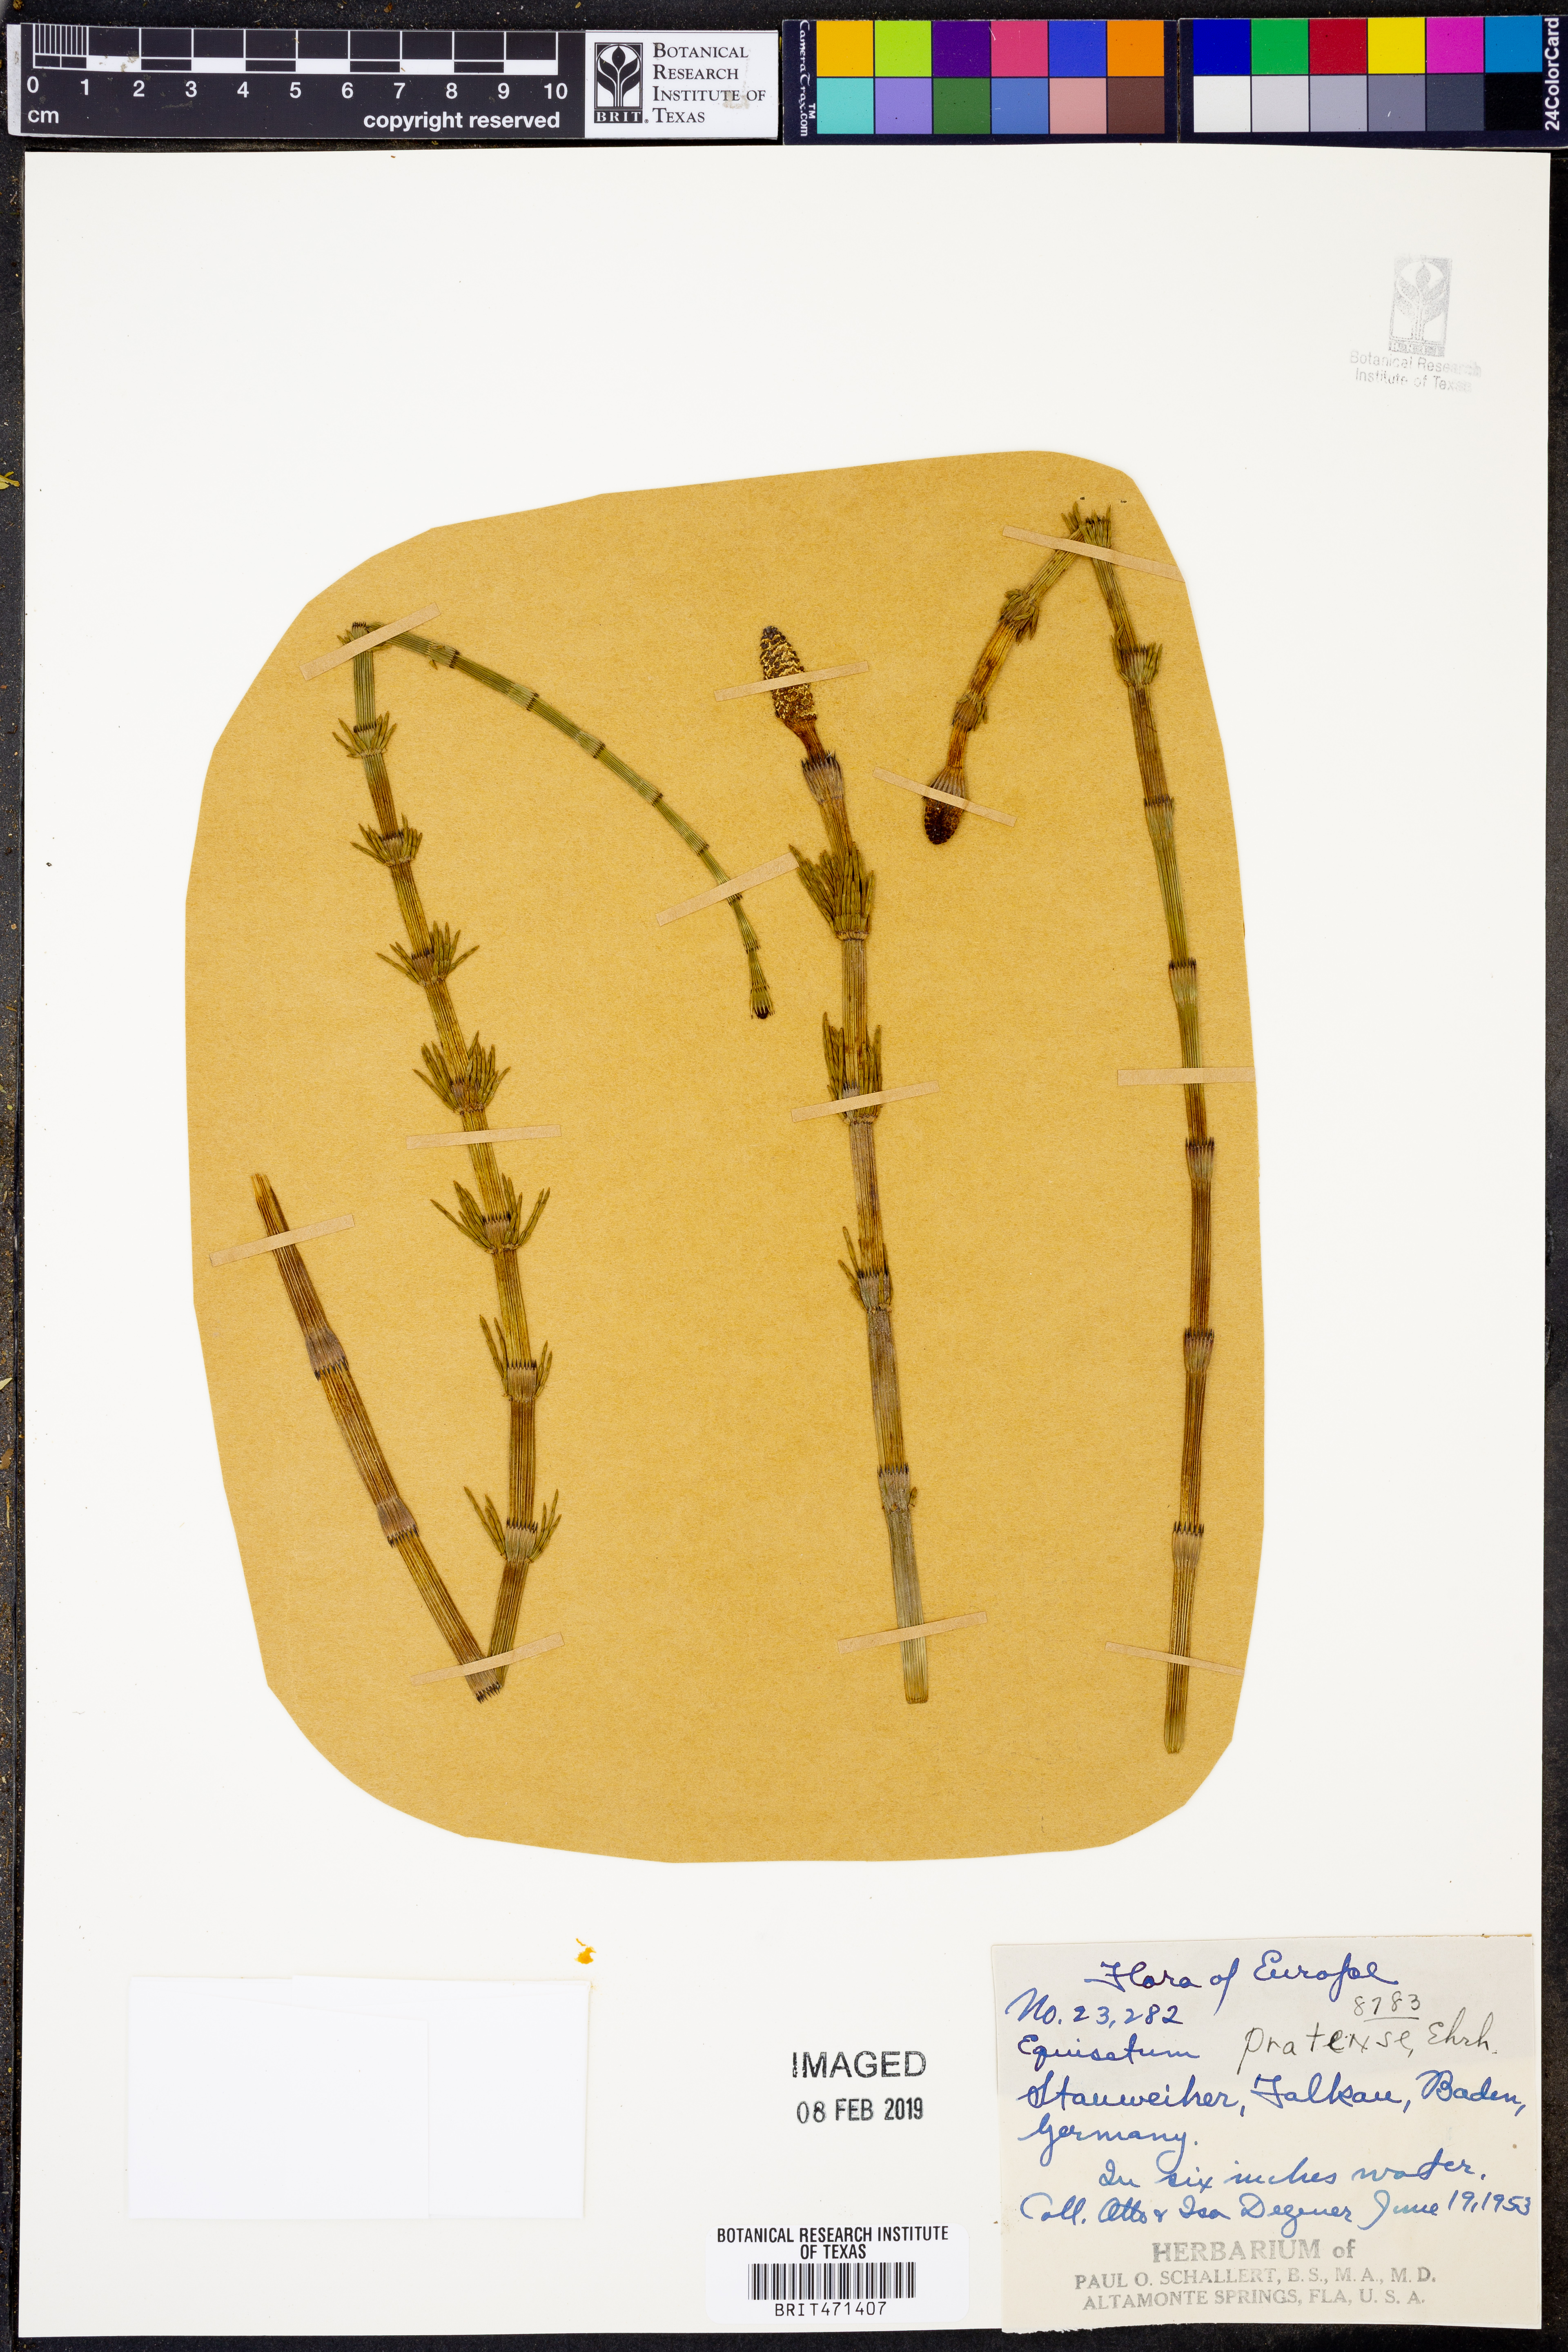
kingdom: Plantae
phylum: Tracheophyta
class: Polypodiopsida
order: Equisetales
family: Equisetaceae
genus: Equisetum
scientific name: Equisetum pratense
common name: Meadow horsetail
